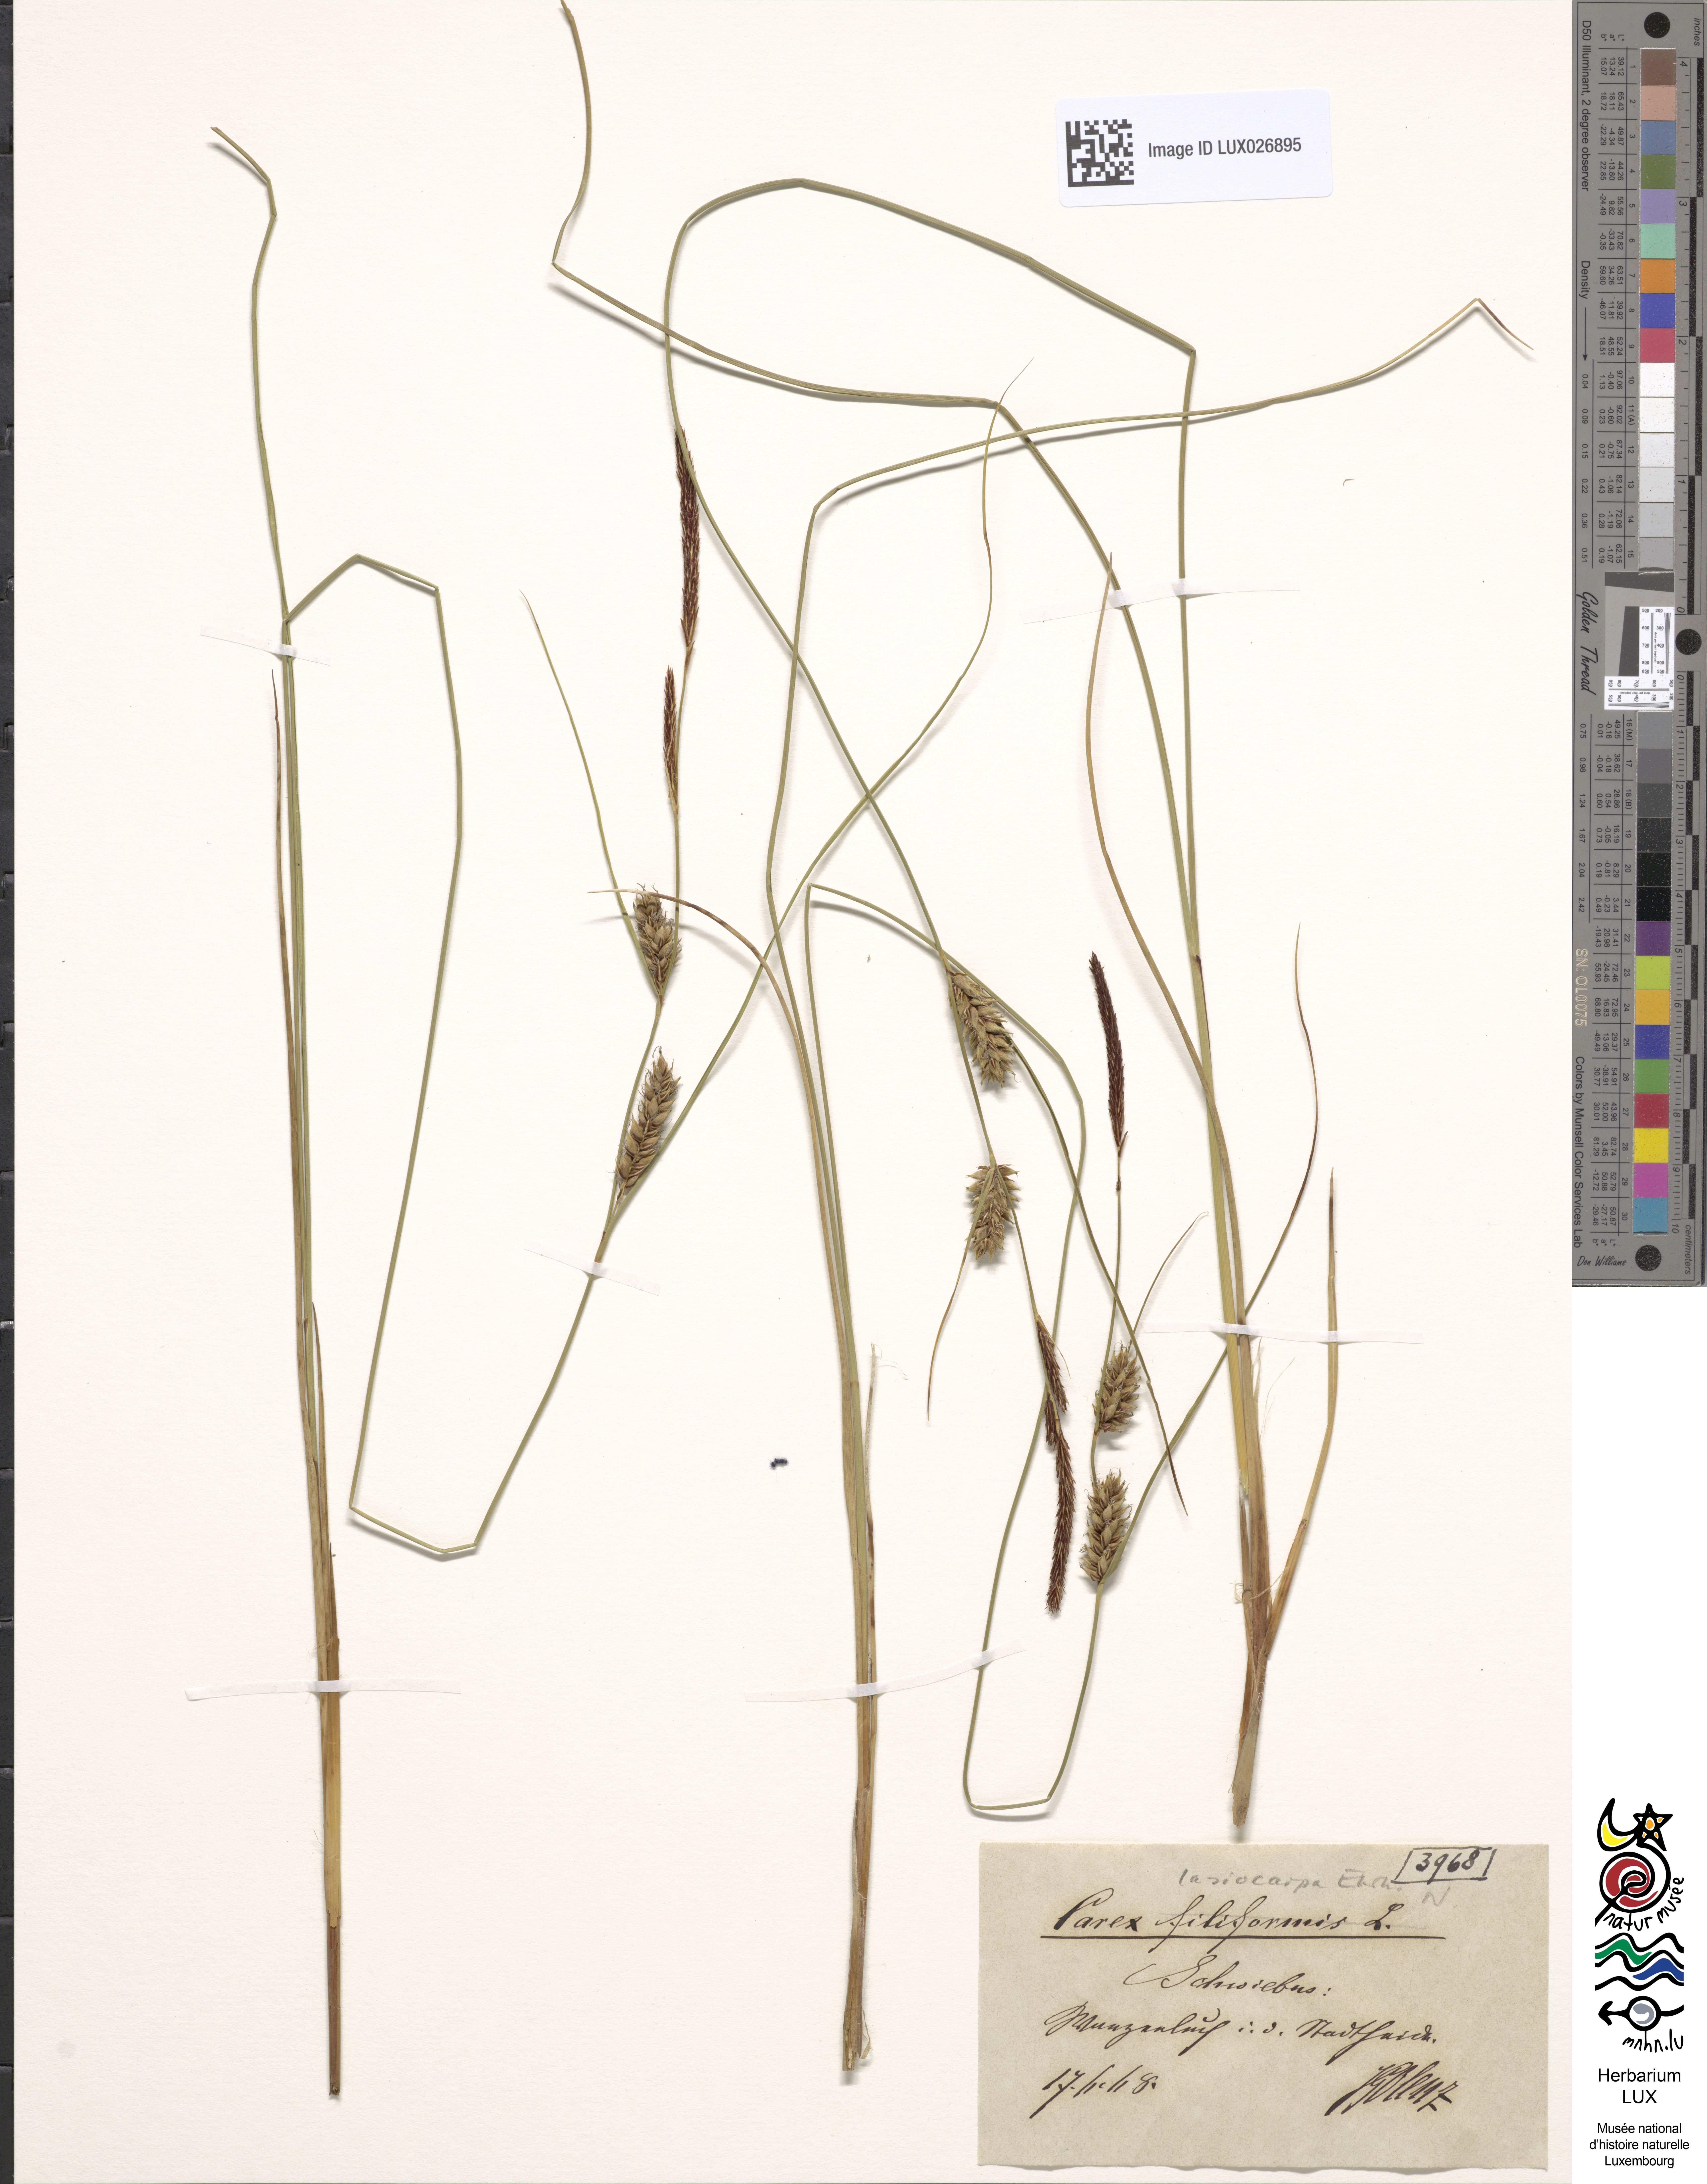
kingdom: Plantae
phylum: Tracheophyta
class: Liliopsida
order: Poales
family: Cyperaceae
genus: Carex
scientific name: Carex lasiocarpa
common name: Slender sedge
